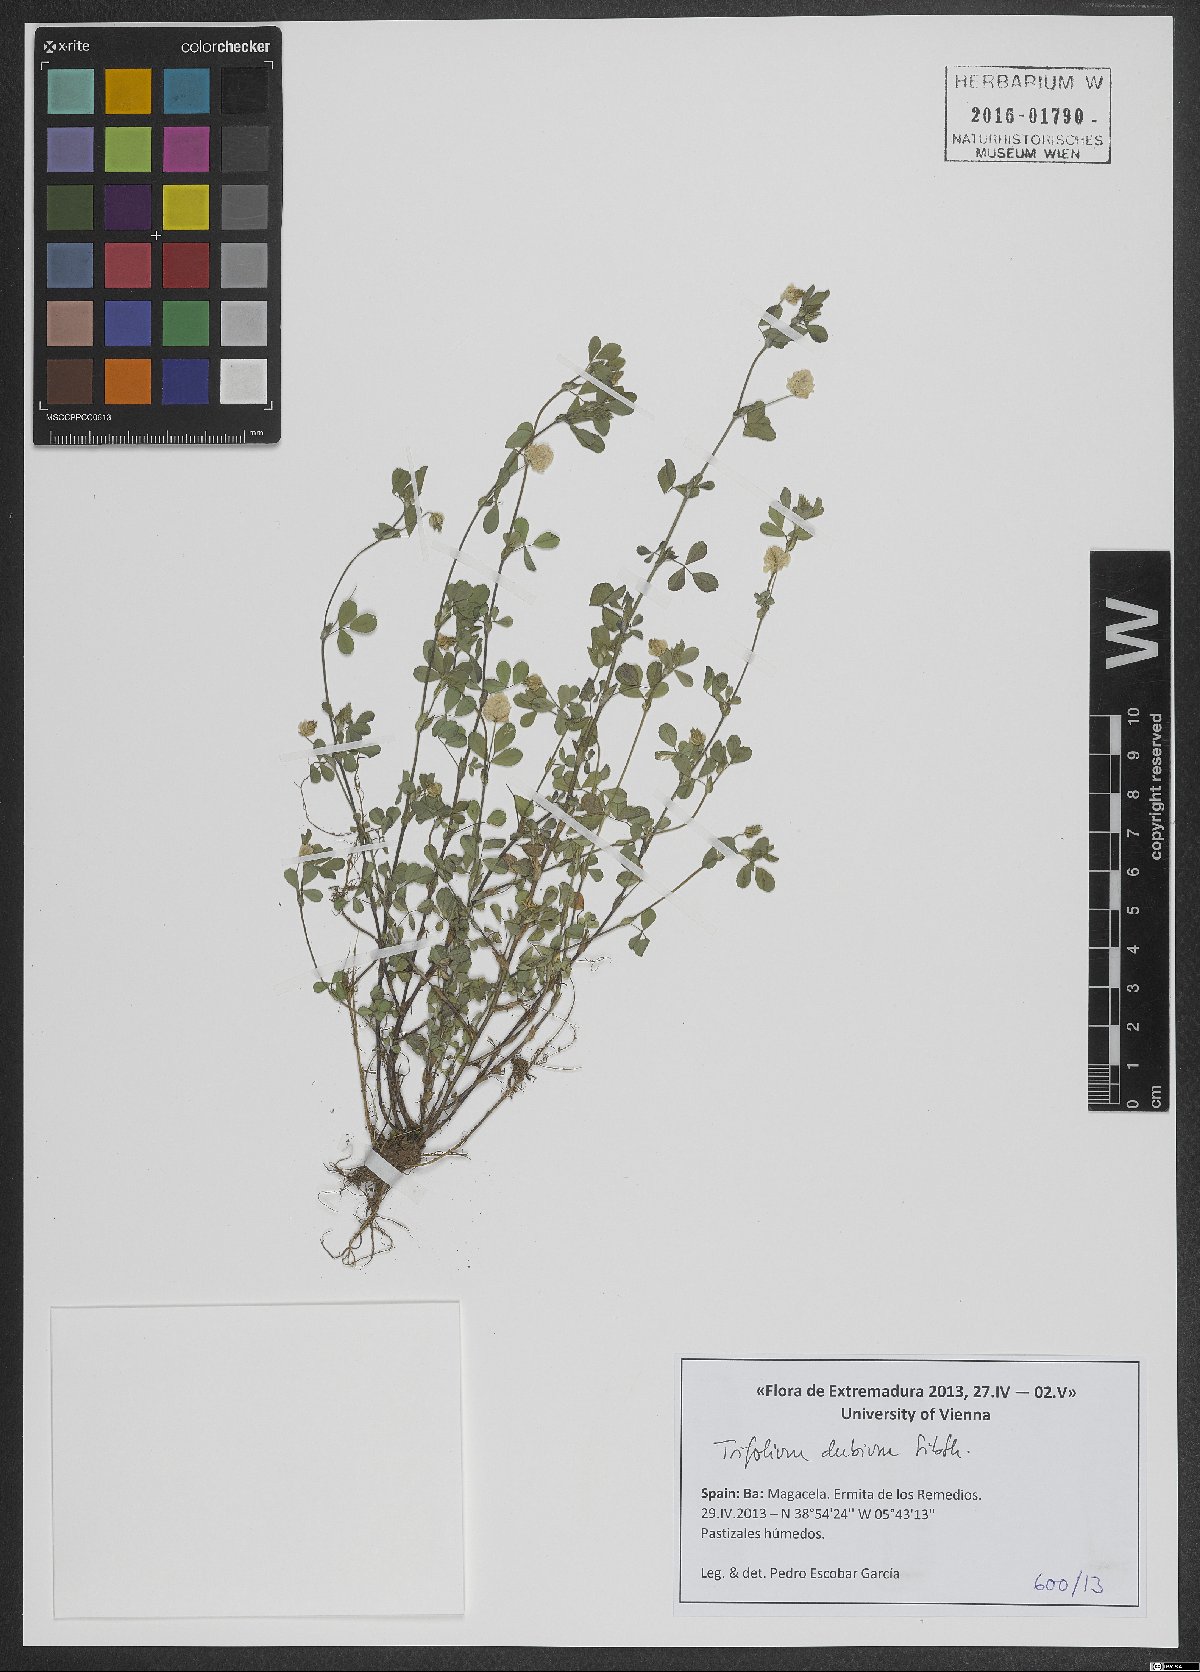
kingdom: Plantae
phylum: Tracheophyta
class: Magnoliopsida
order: Fabales
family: Fabaceae
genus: Trifolium
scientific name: Trifolium dubium
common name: Suckling clover
